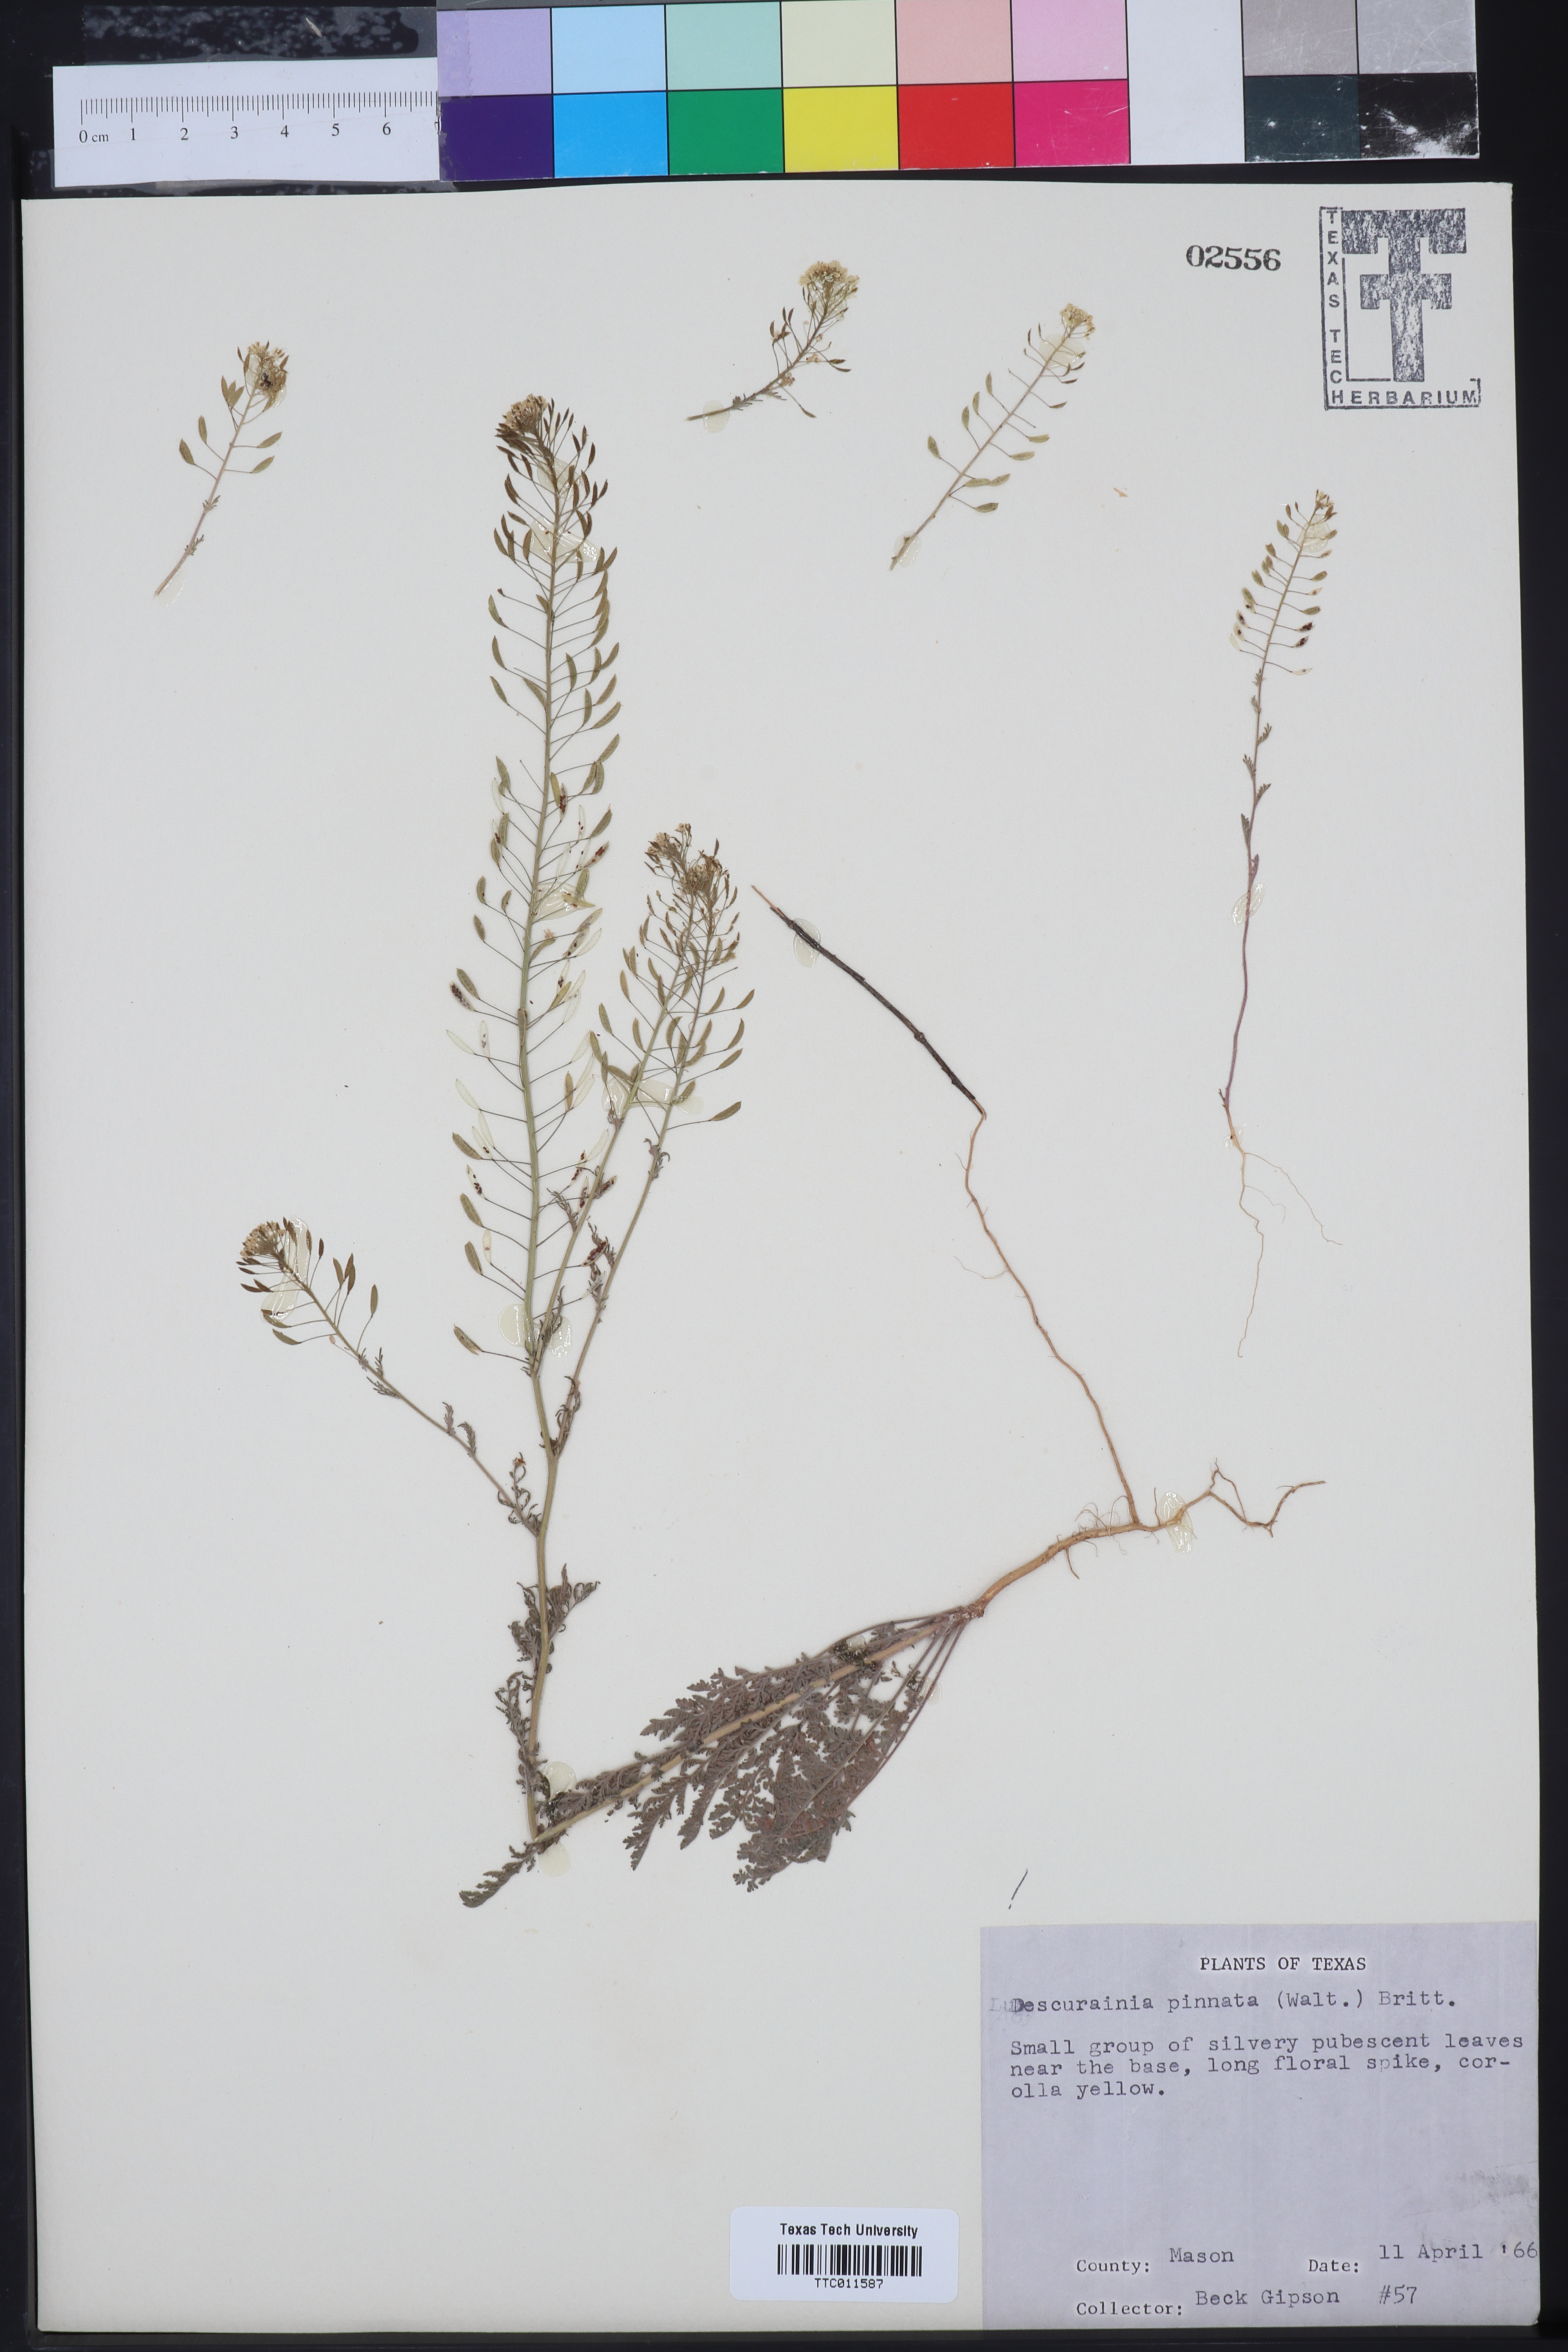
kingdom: Plantae
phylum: Tracheophyta
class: Magnoliopsida
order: Brassicales
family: Brassicaceae
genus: Descurainia
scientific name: Descurainia pinnata
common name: Western tansy mustard
